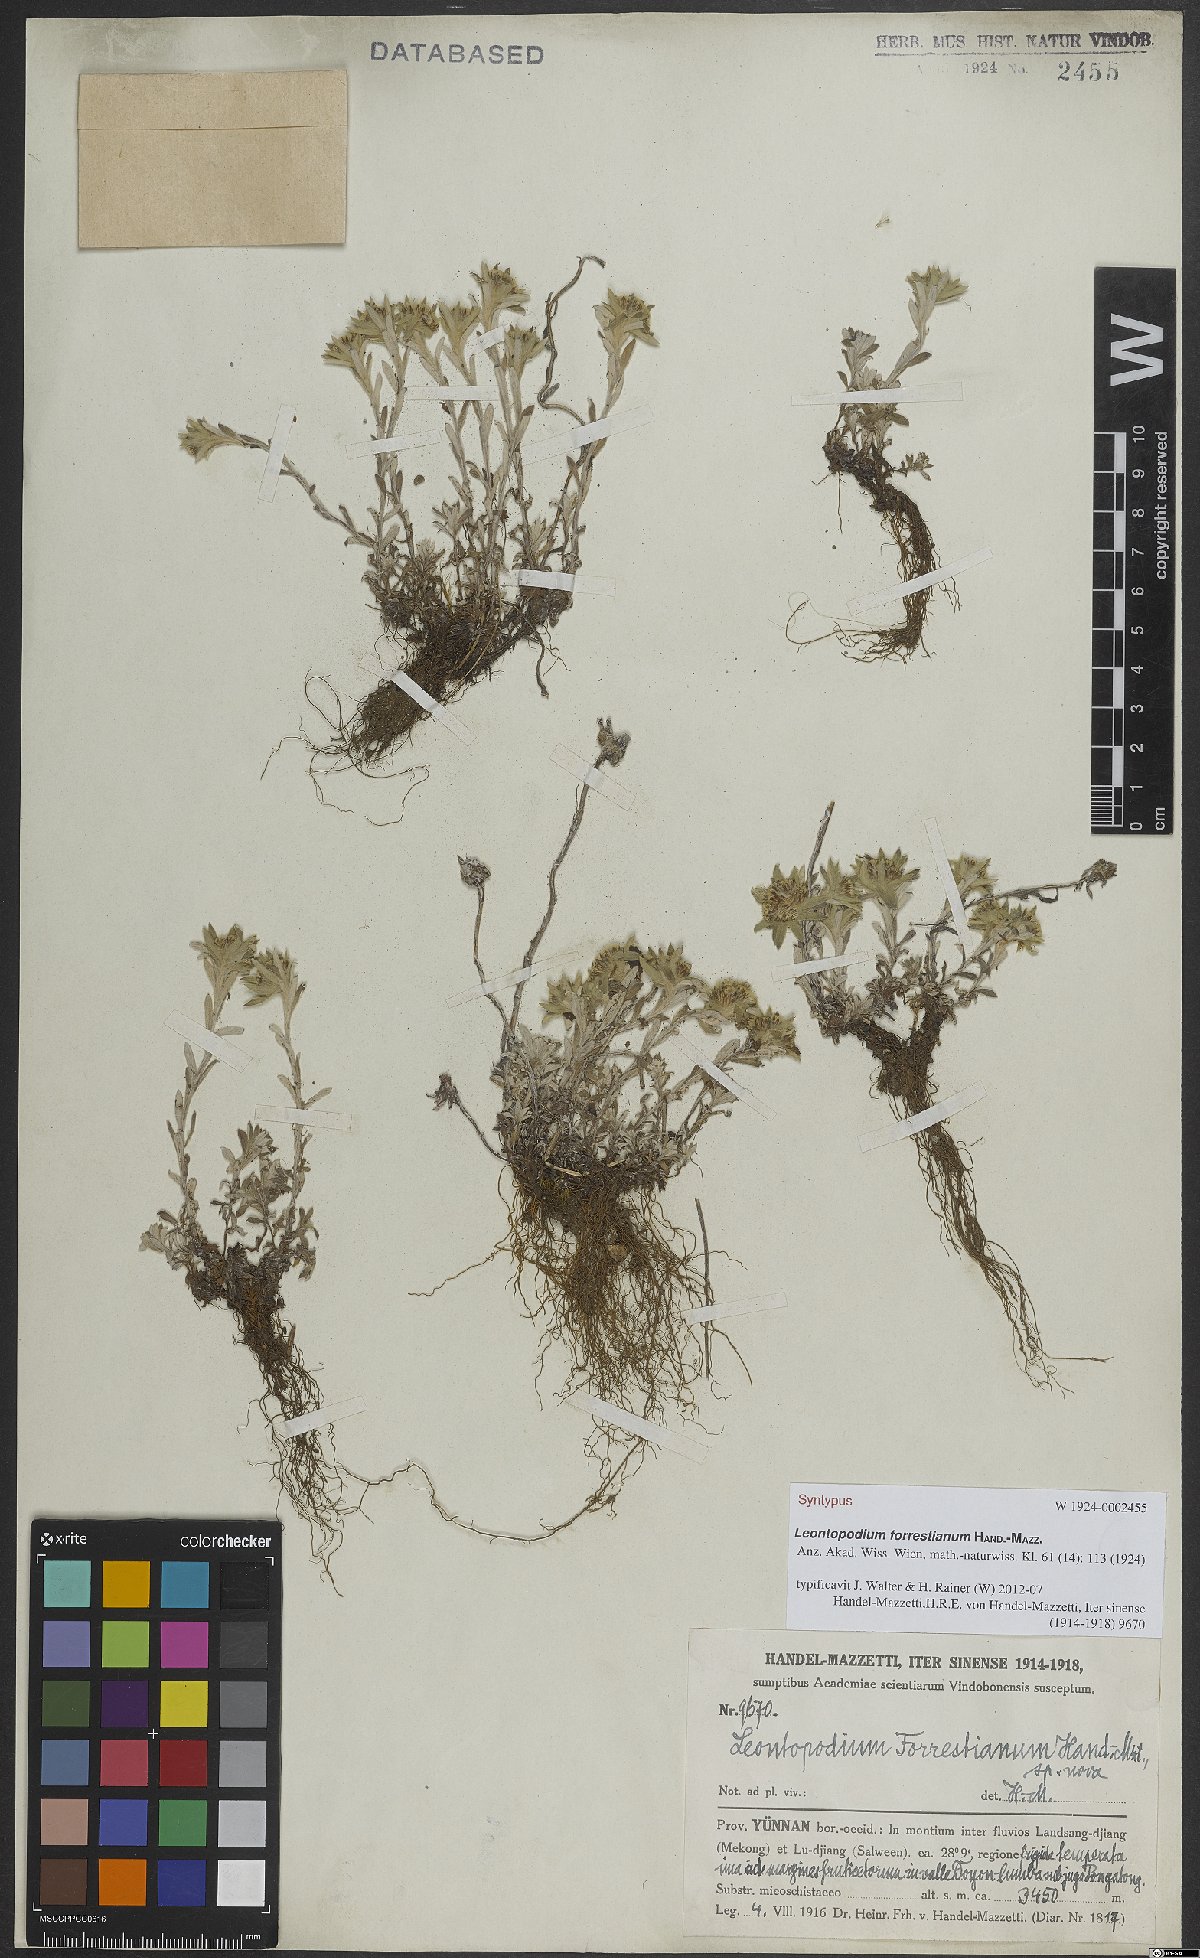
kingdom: Plantae
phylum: Tracheophyta
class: Magnoliopsida
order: Asterales
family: Asteraceae
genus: Leontopodium
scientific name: Leontopodium forrestianum
